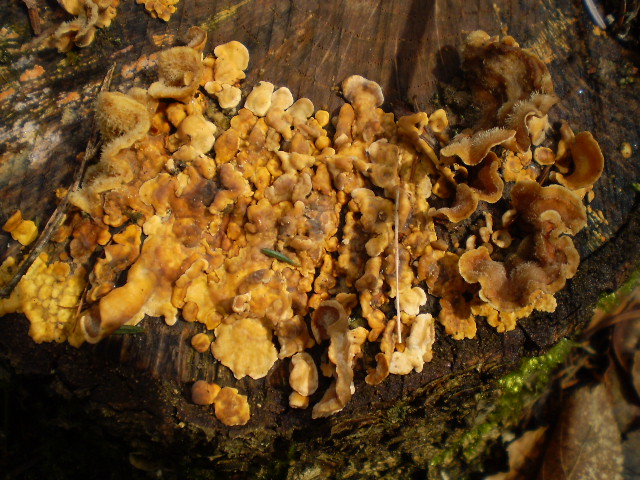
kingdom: Fungi
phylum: Basidiomycota
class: Agaricomycetes
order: Russulales
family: Stereaceae
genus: Stereum
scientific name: Stereum hirsutum
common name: håret lædersvamp
